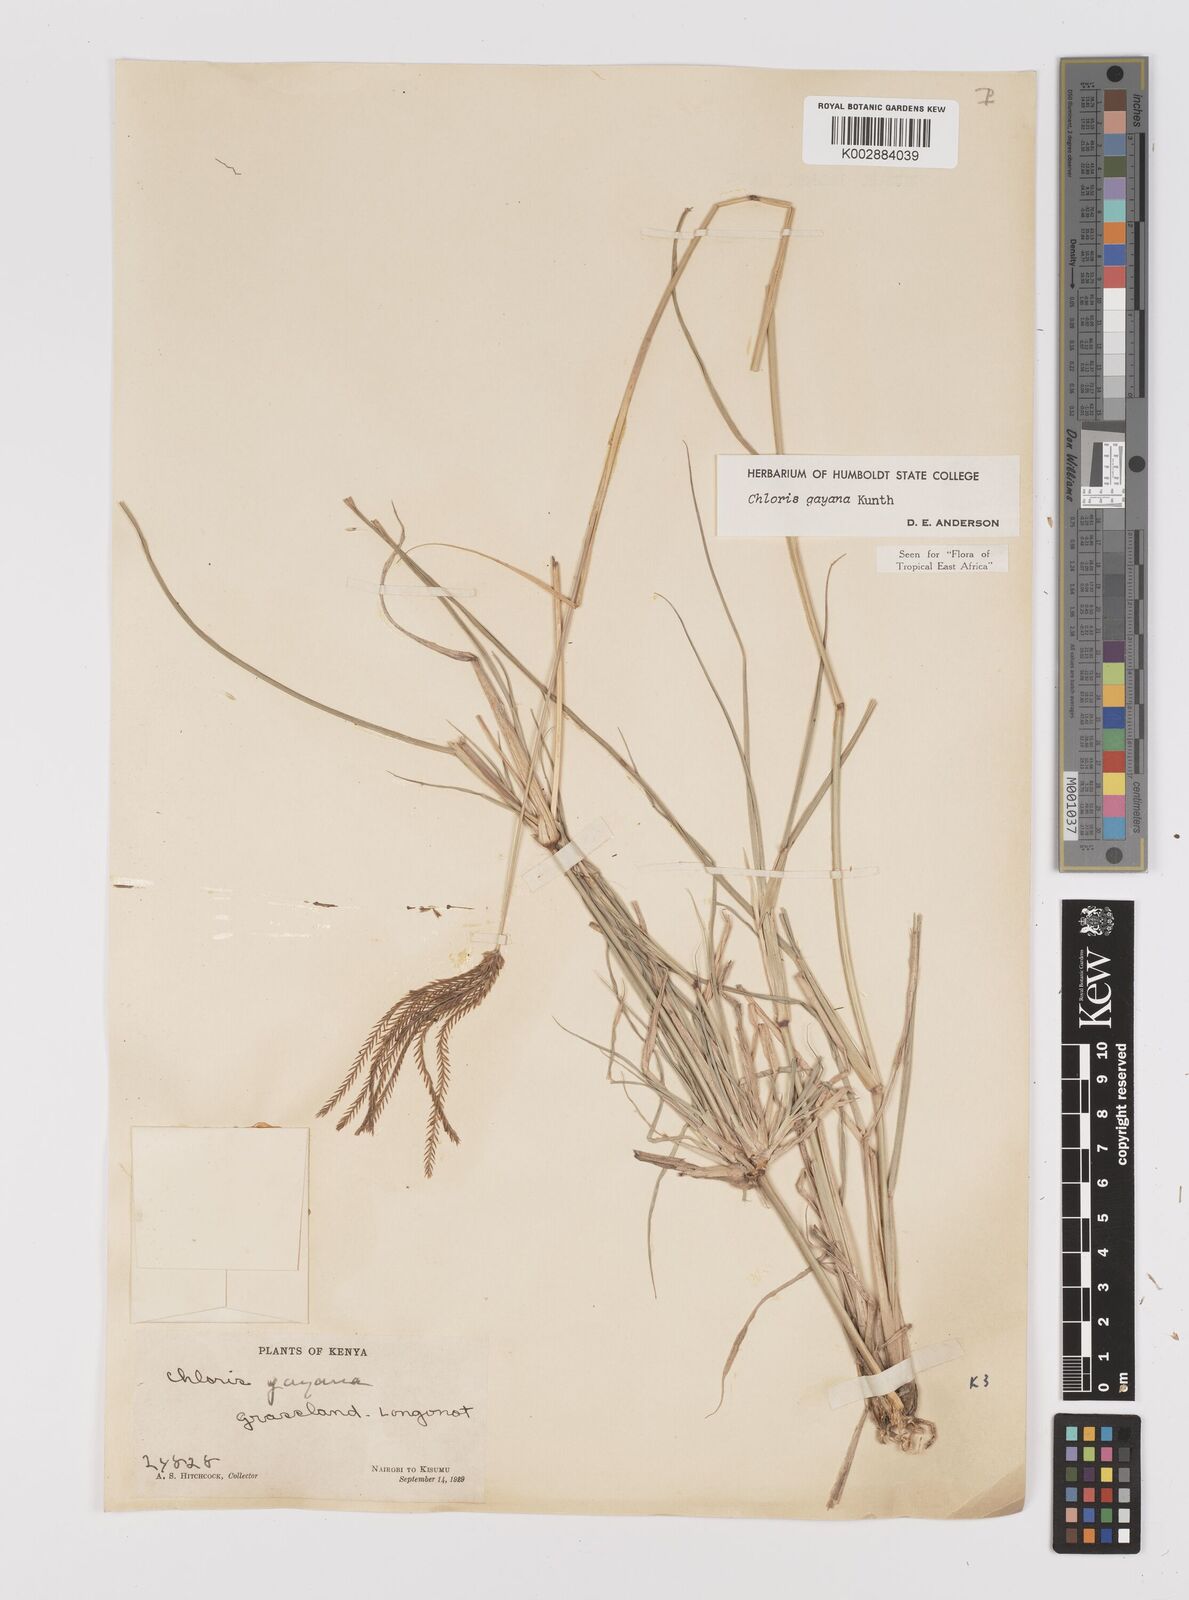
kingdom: Plantae
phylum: Tracheophyta
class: Liliopsida
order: Poales
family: Poaceae
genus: Chloris
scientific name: Chloris gayana
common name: Rhodes grass
